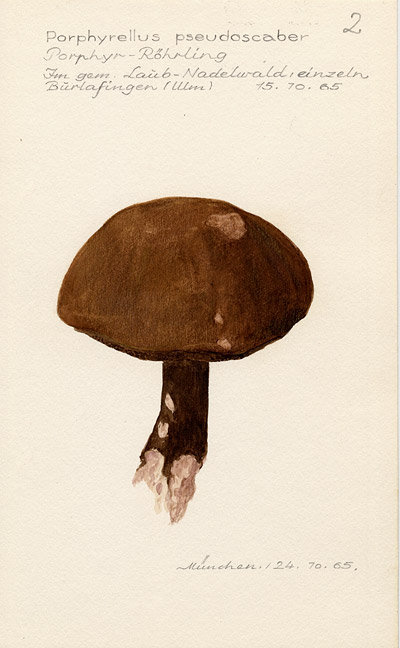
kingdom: Fungi
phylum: Basidiomycota
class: Agaricomycetes
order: Boletales
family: Boletaceae
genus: Porphyrellus
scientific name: Porphyrellus porphyrosporus
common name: Dusky bolete
